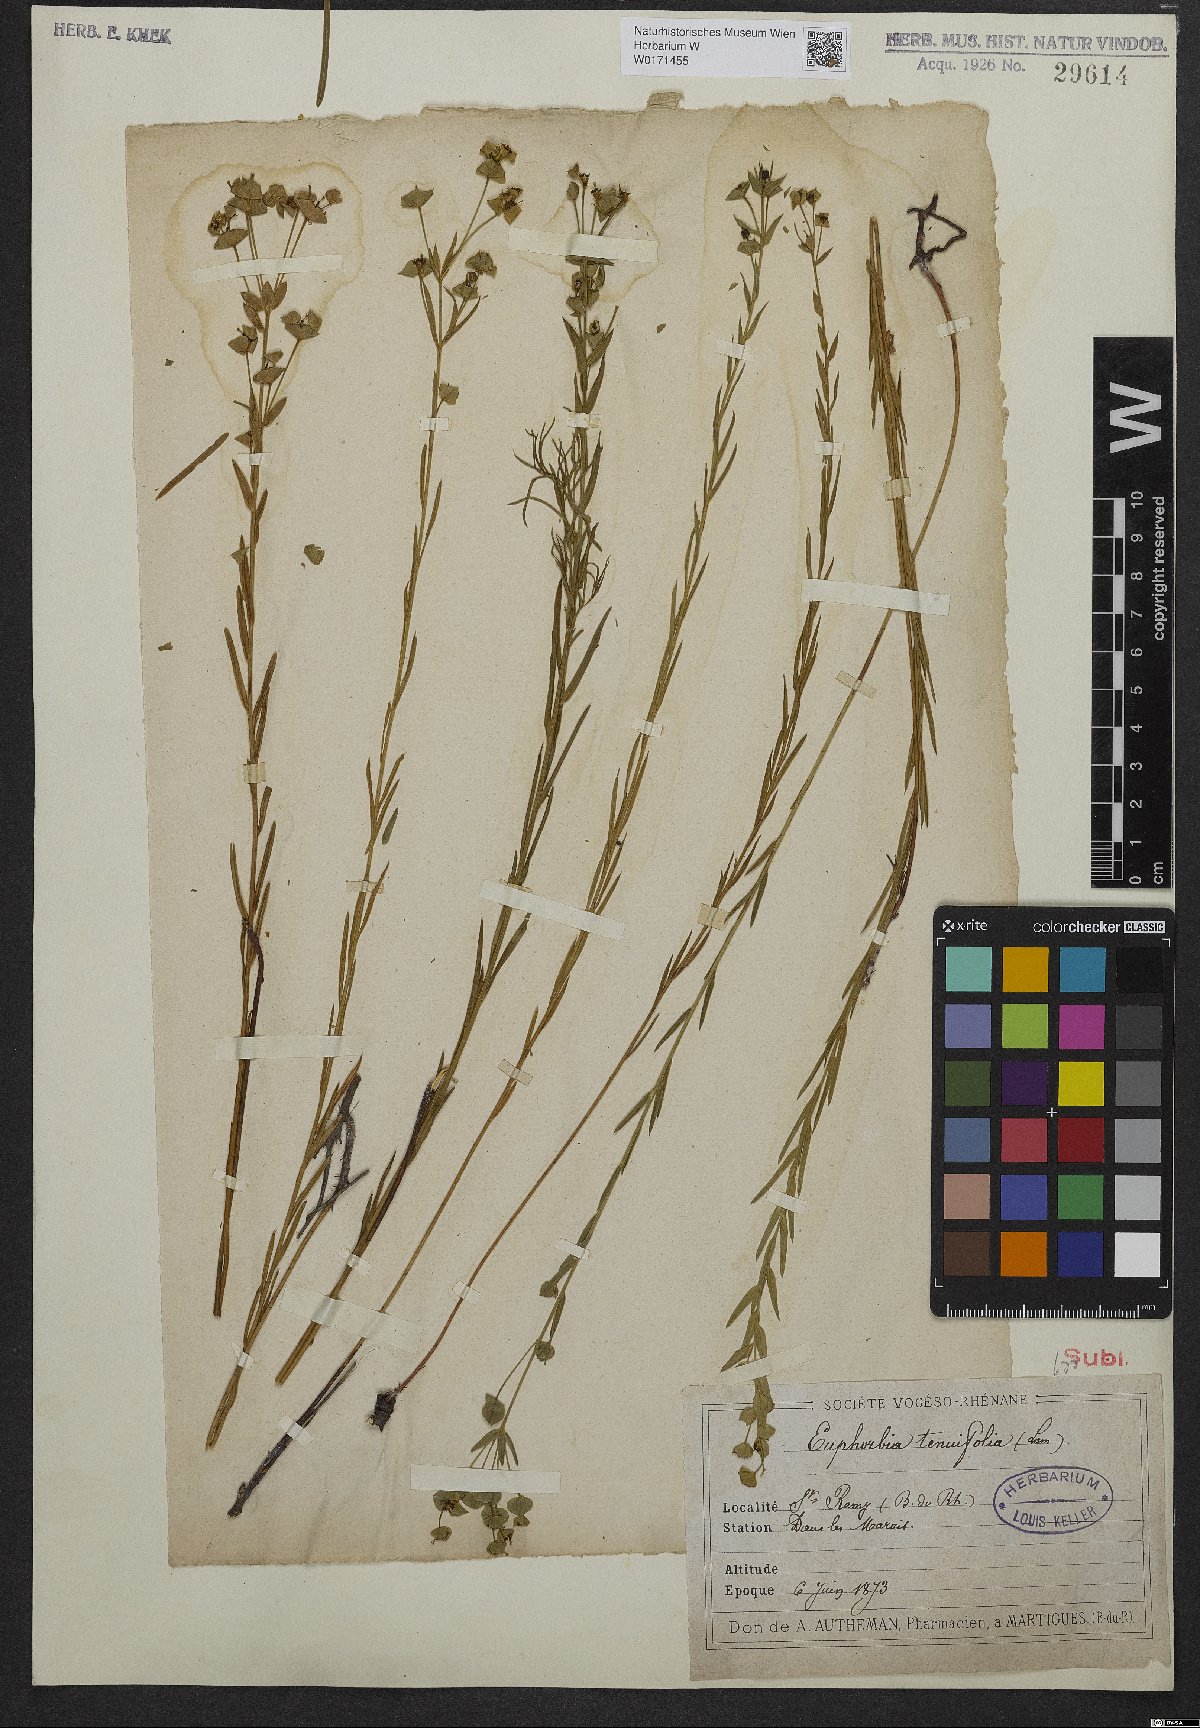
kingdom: Plantae
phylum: Tracheophyta
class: Magnoliopsida
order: Malpighiales
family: Euphorbiaceae
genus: Euphorbia
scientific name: Euphorbia graminifolia
